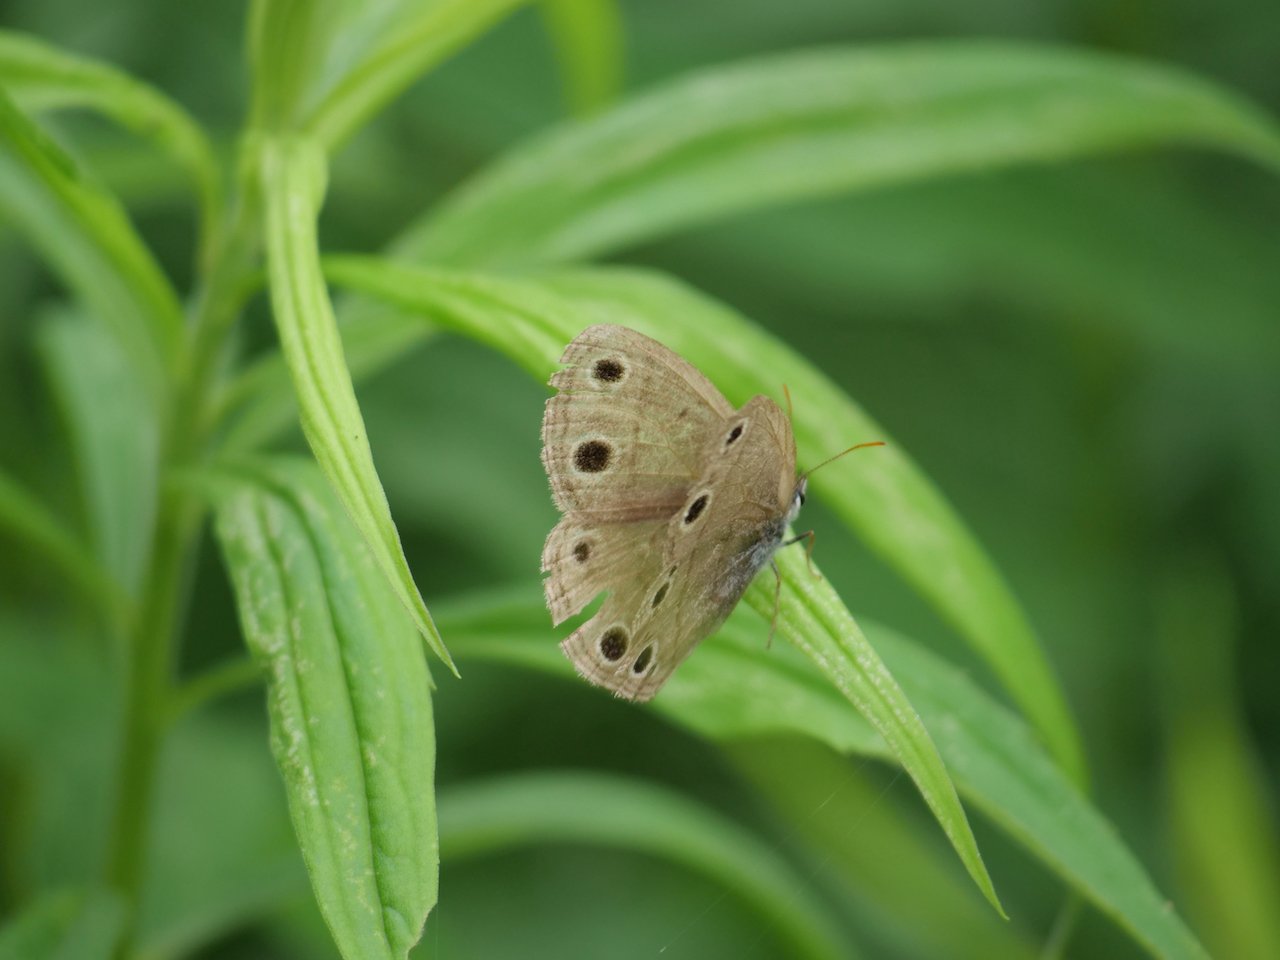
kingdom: Animalia
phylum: Arthropoda
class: Insecta
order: Lepidoptera
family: Nymphalidae
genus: Euptychia
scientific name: Euptychia cymela
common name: Little Wood Satyr
